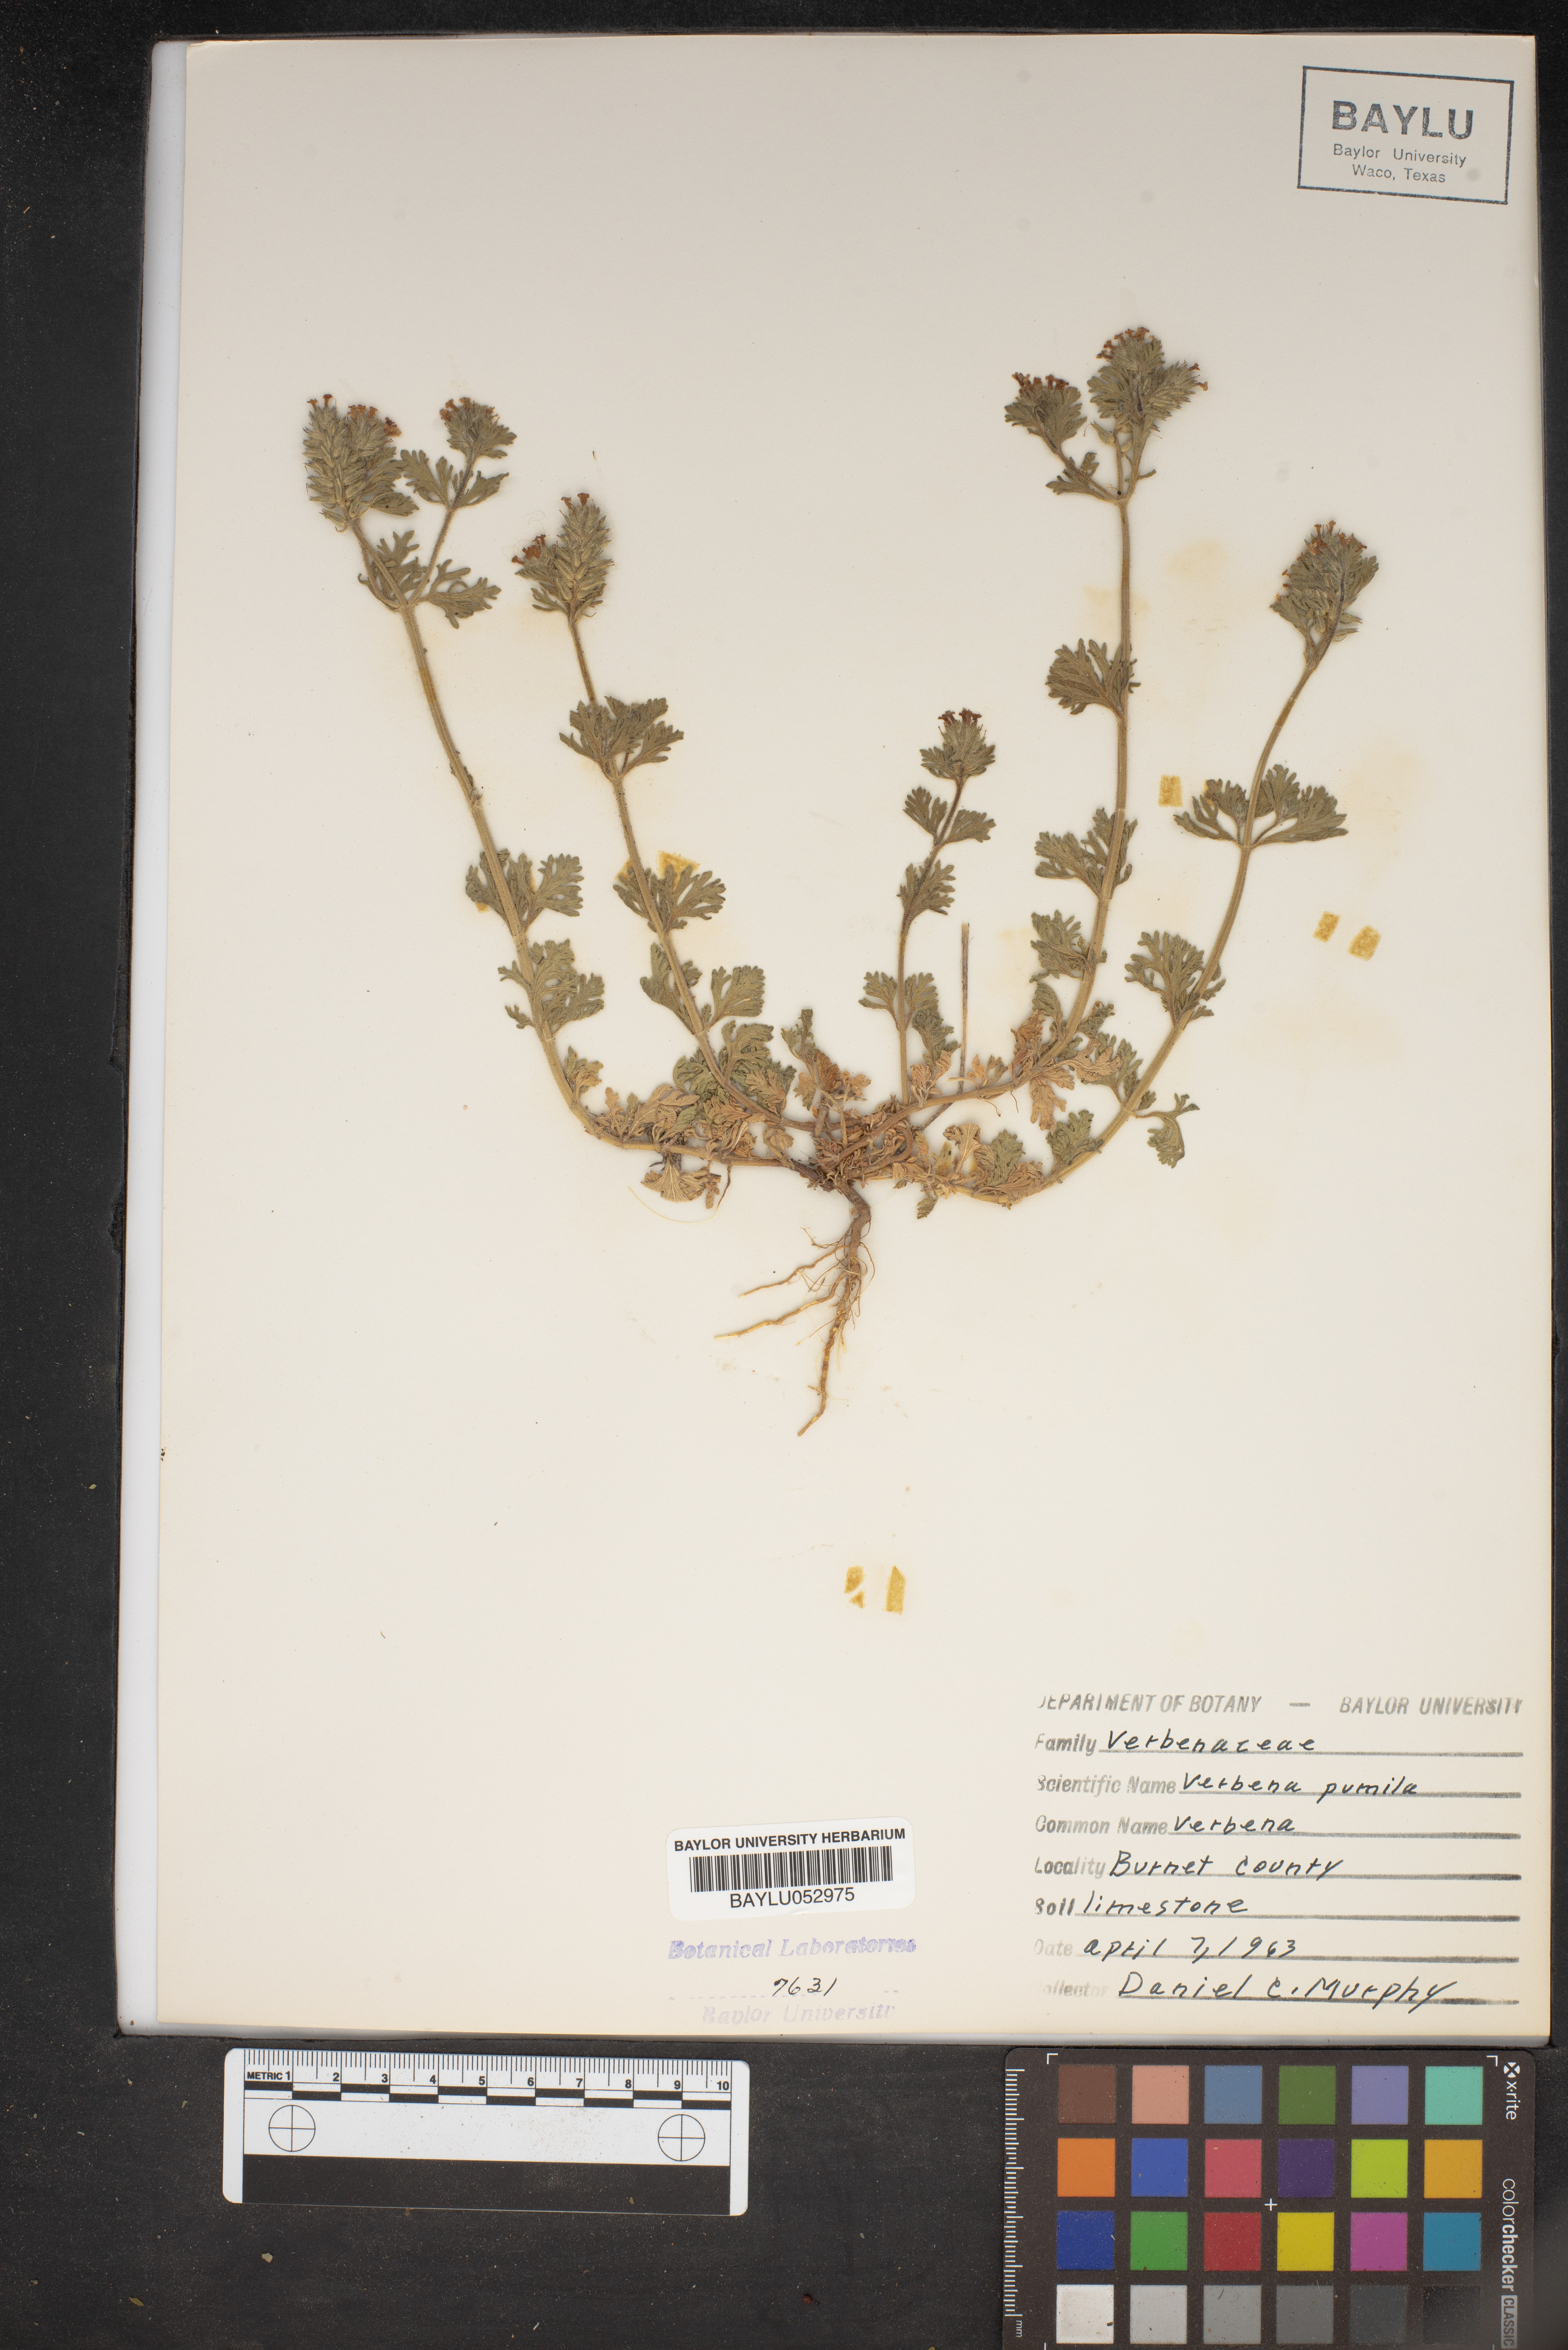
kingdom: Plantae
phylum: Tracheophyta
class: Magnoliopsida
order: Lamiales
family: Verbenaceae
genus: Verbena
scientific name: Verbena pumila
